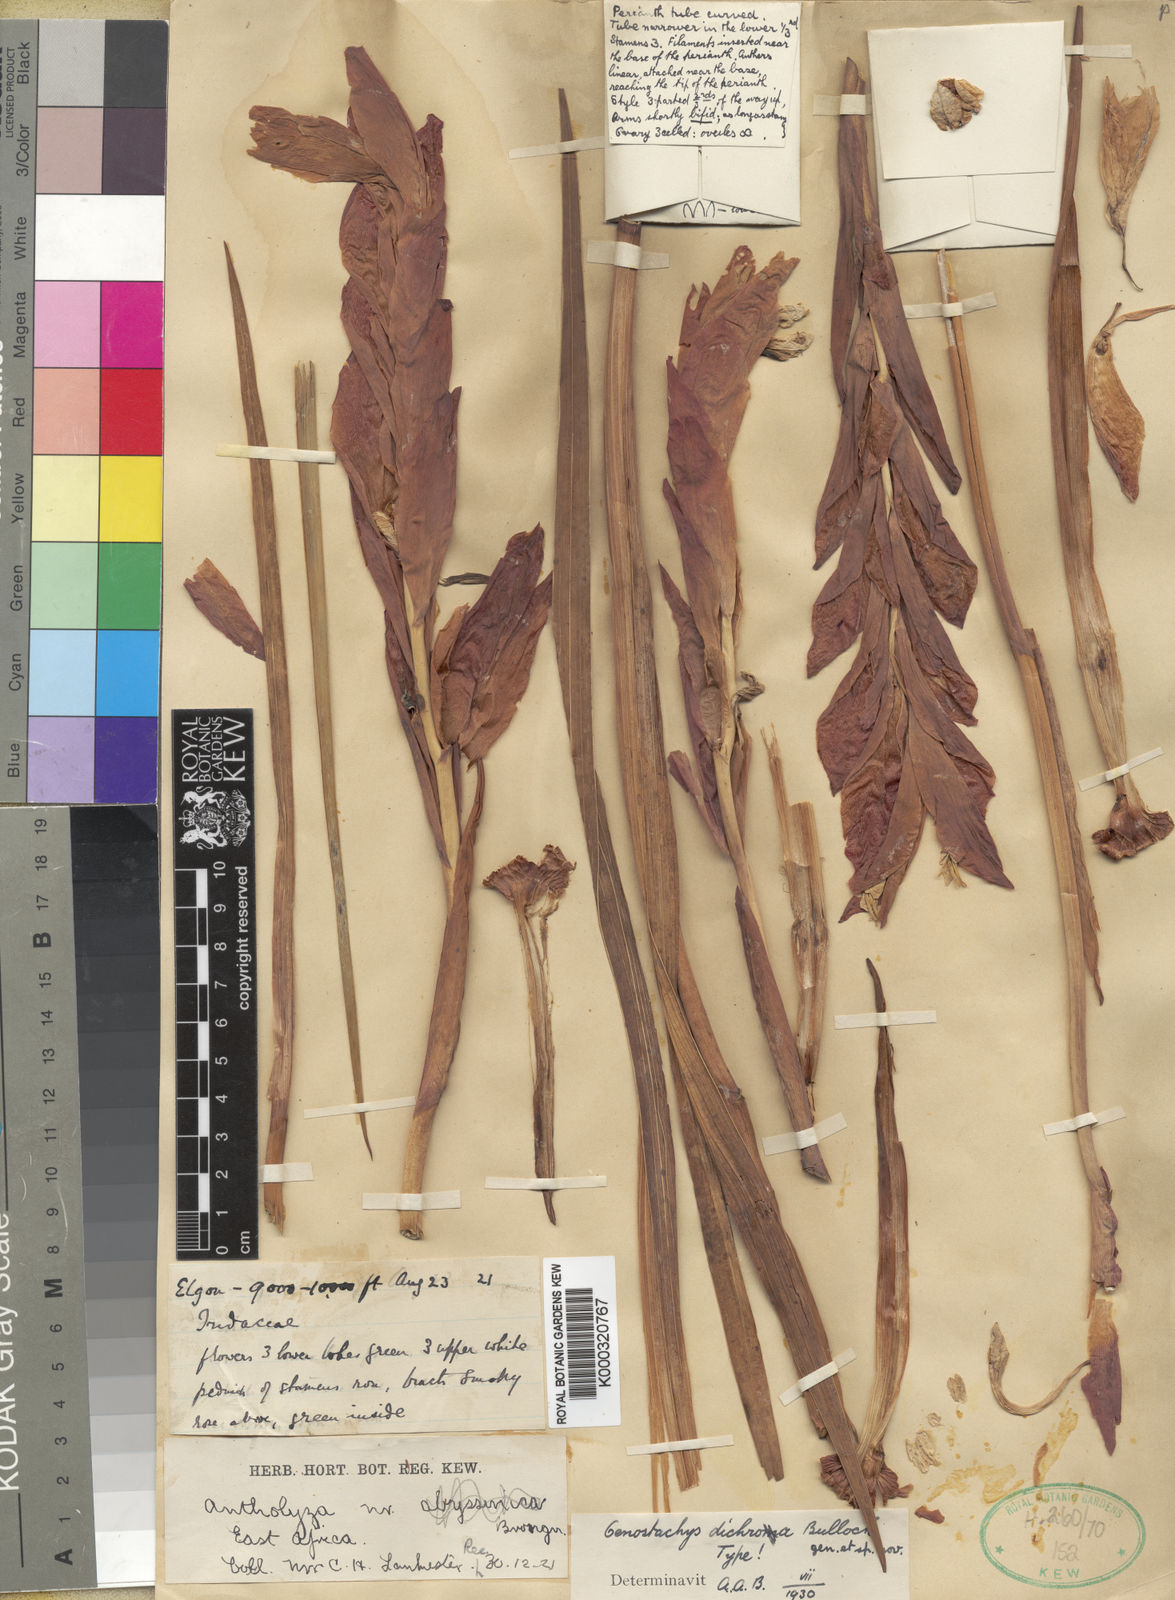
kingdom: Plantae
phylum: Tracheophyta
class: Liliopsida
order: Asparagales
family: Iridaceae
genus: Gladiolus
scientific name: Gladiolus dichrous
